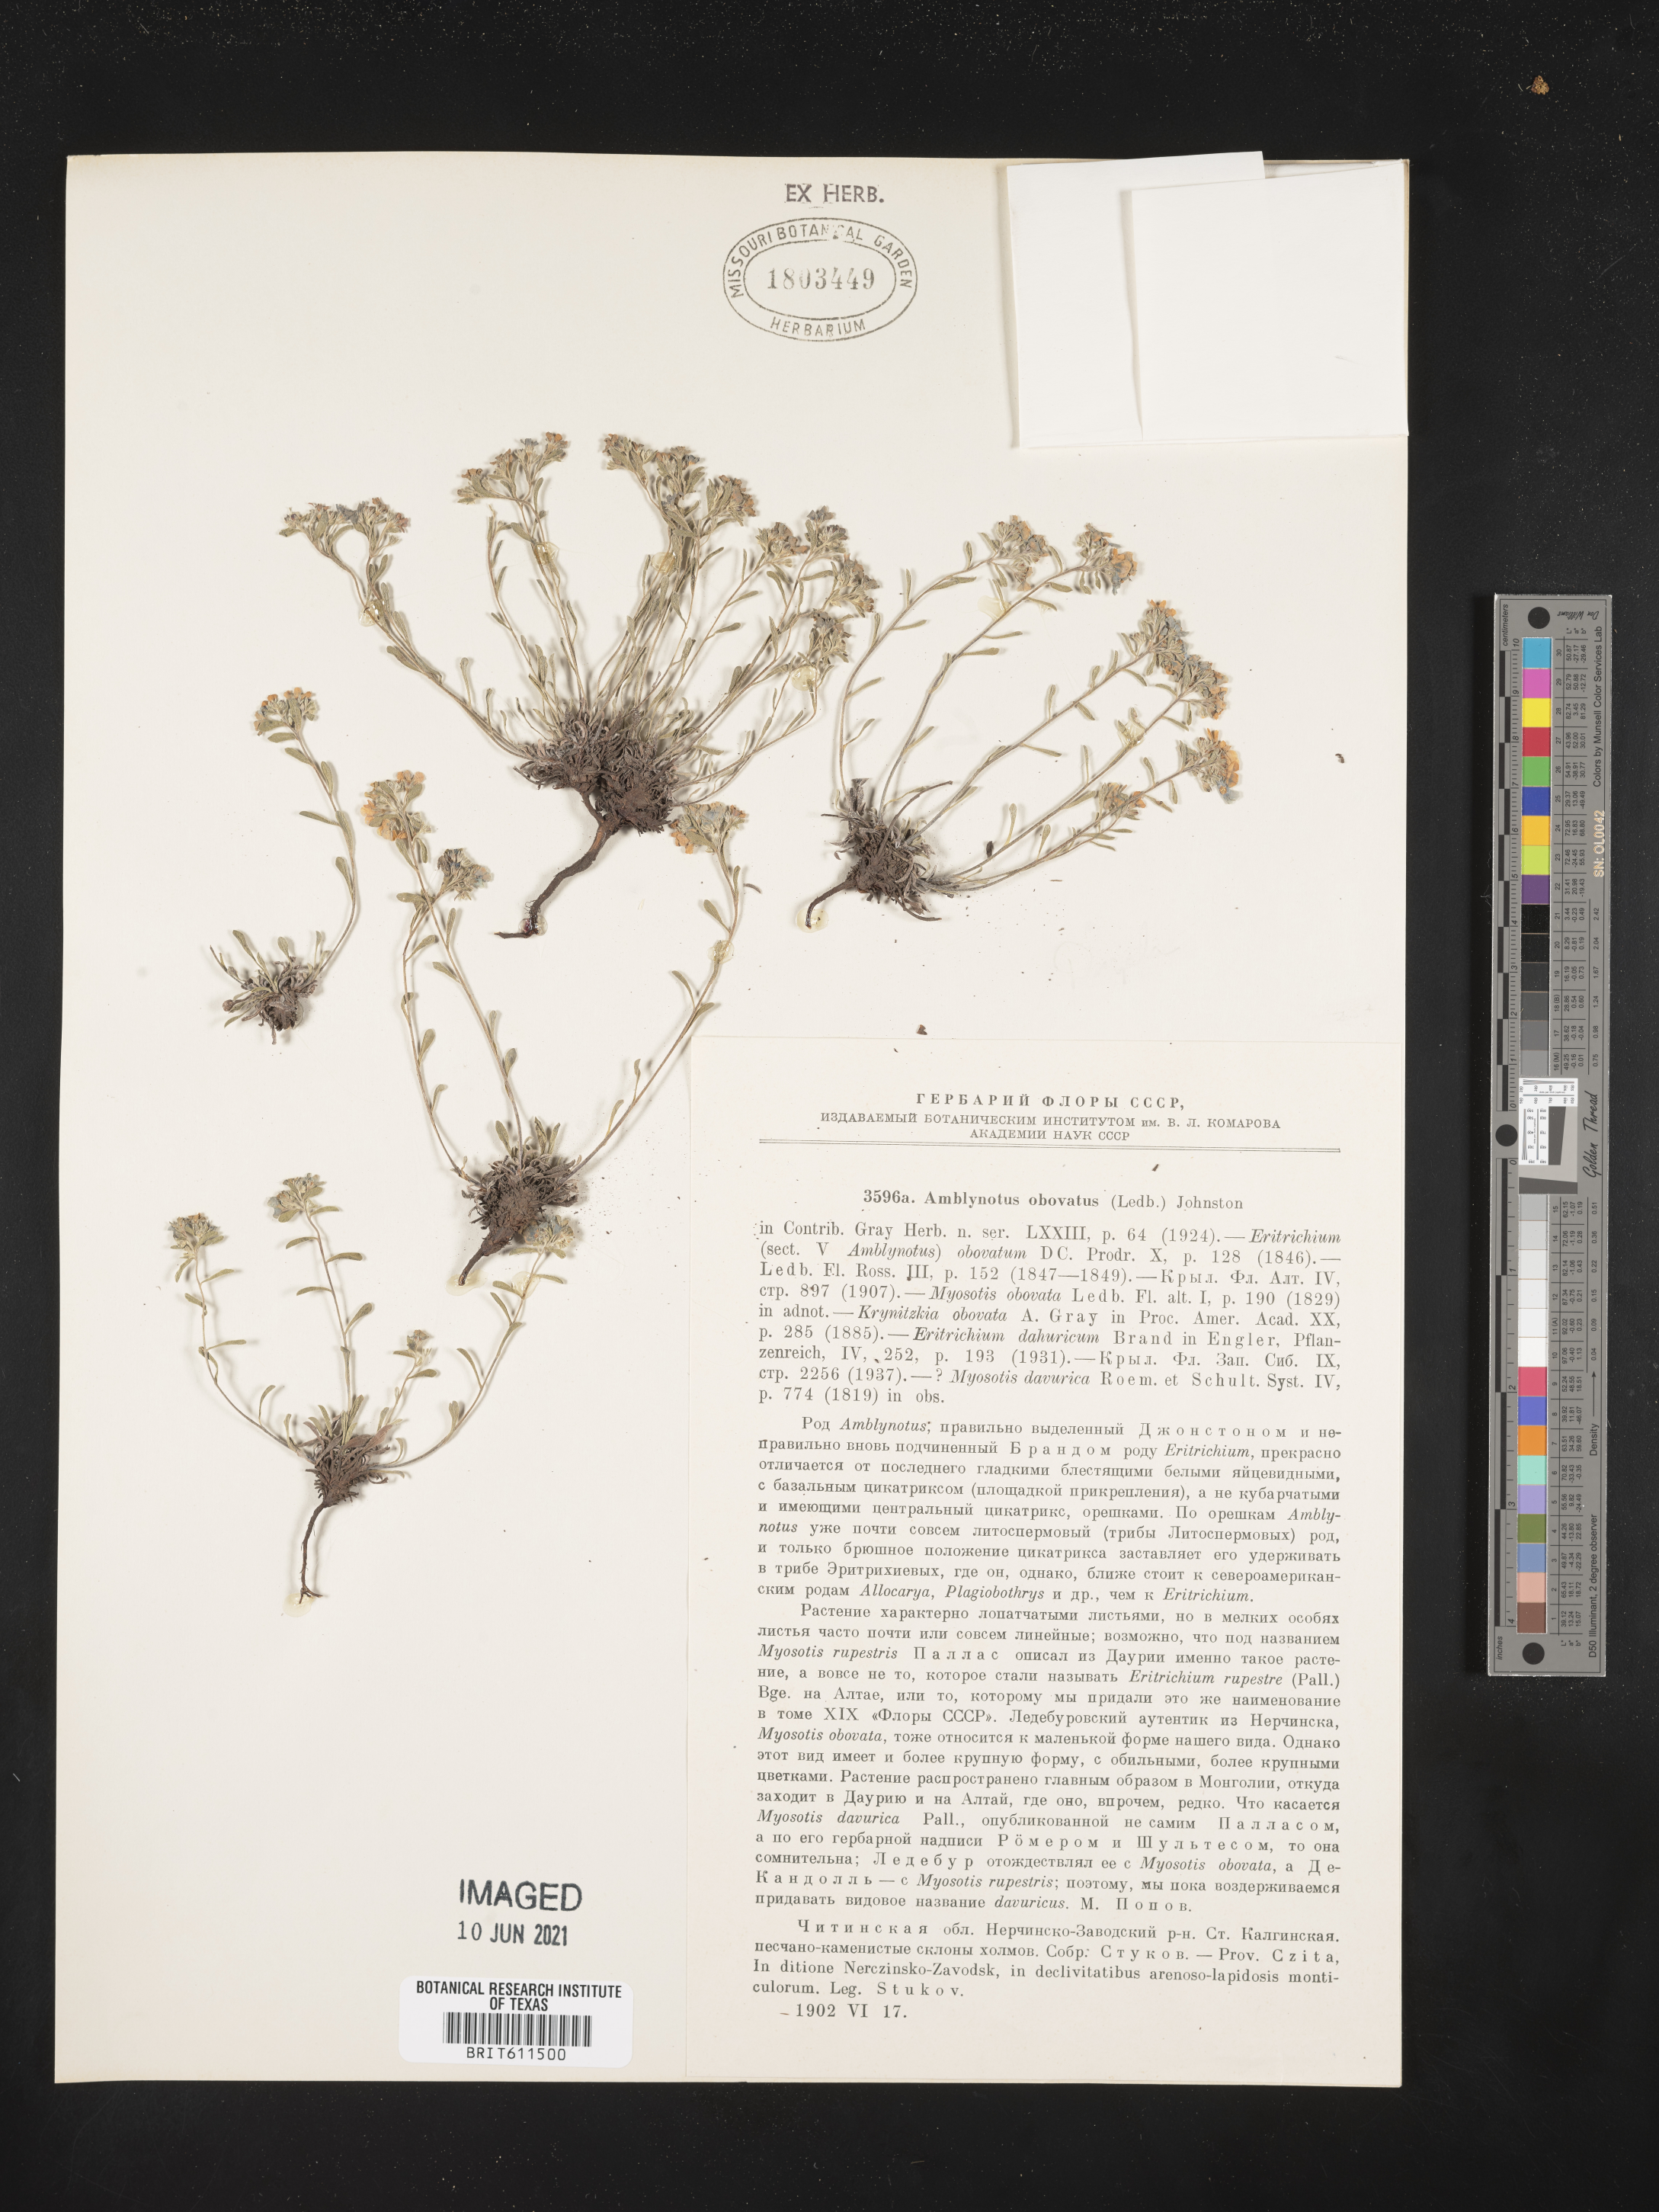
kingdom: Plantae
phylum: Tracheophyta
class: Magnoliopsida
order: Boraginales
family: Boraginaceae
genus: Eritrichium
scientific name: Eritrichium rupestre
